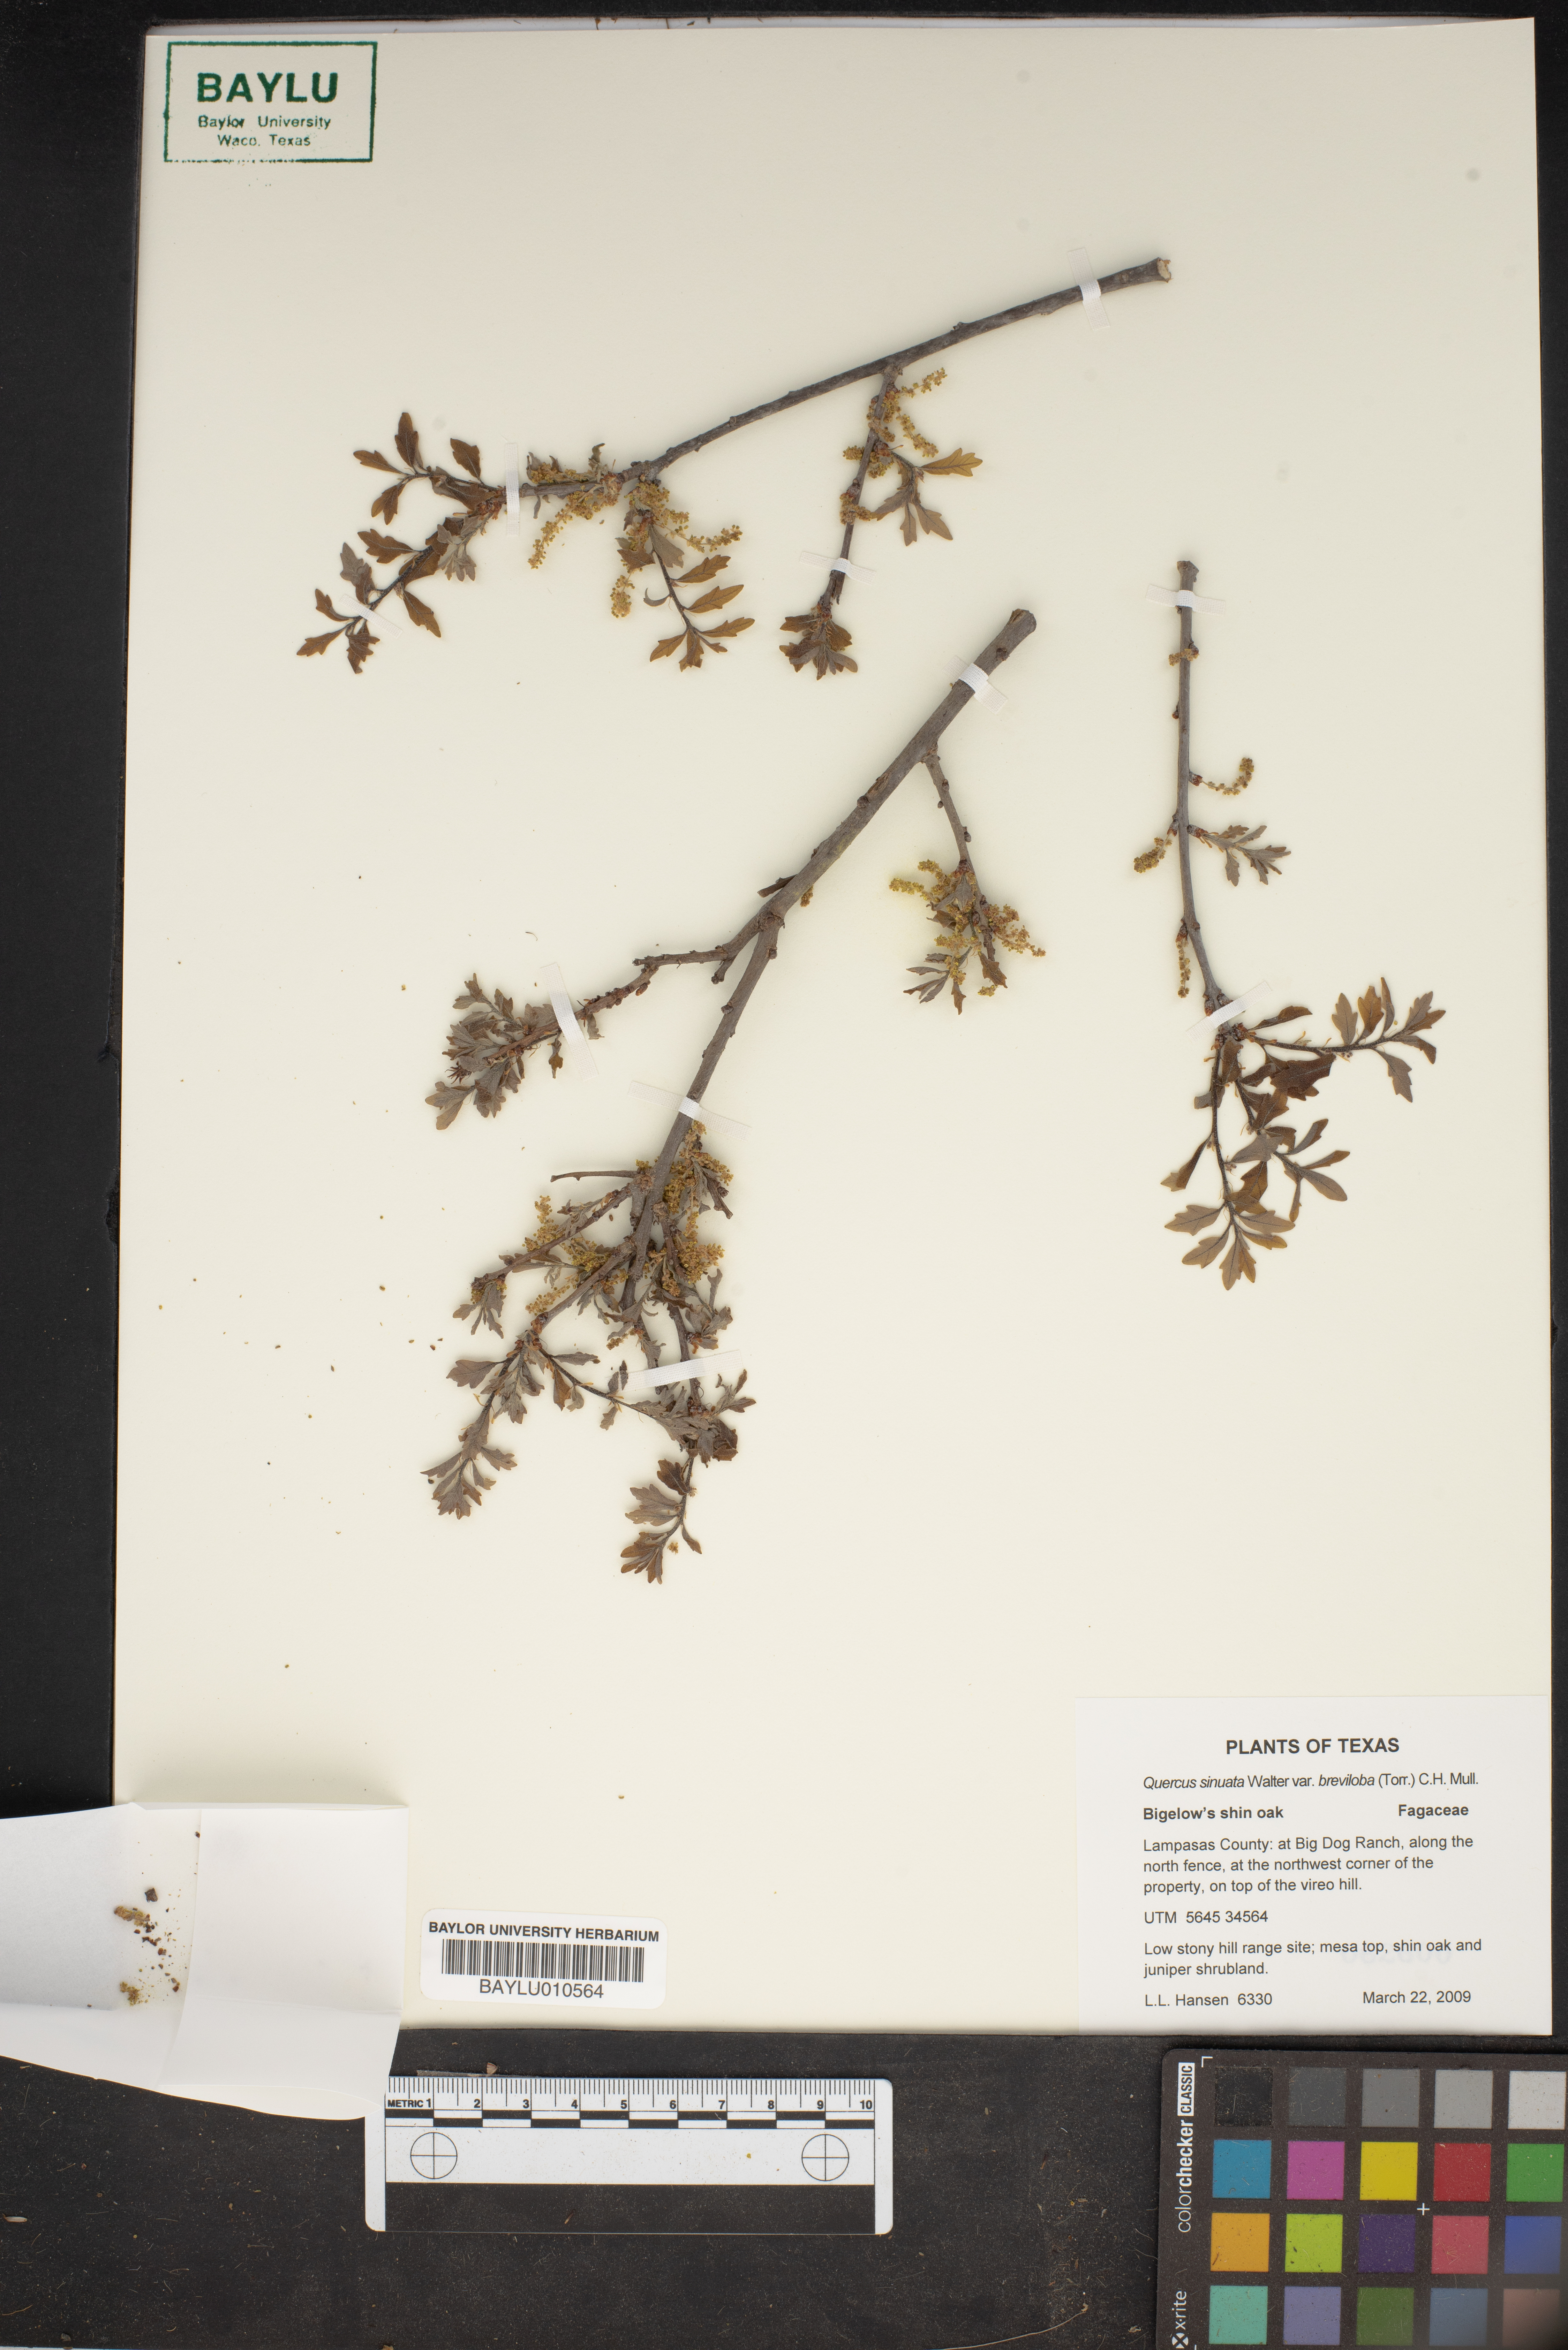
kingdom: Plantae
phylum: Tracheophyta
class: Magnoliopsida
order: Fagales
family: Fagaceae
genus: Quercus
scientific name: Quercus sinuata
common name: Durand oak
